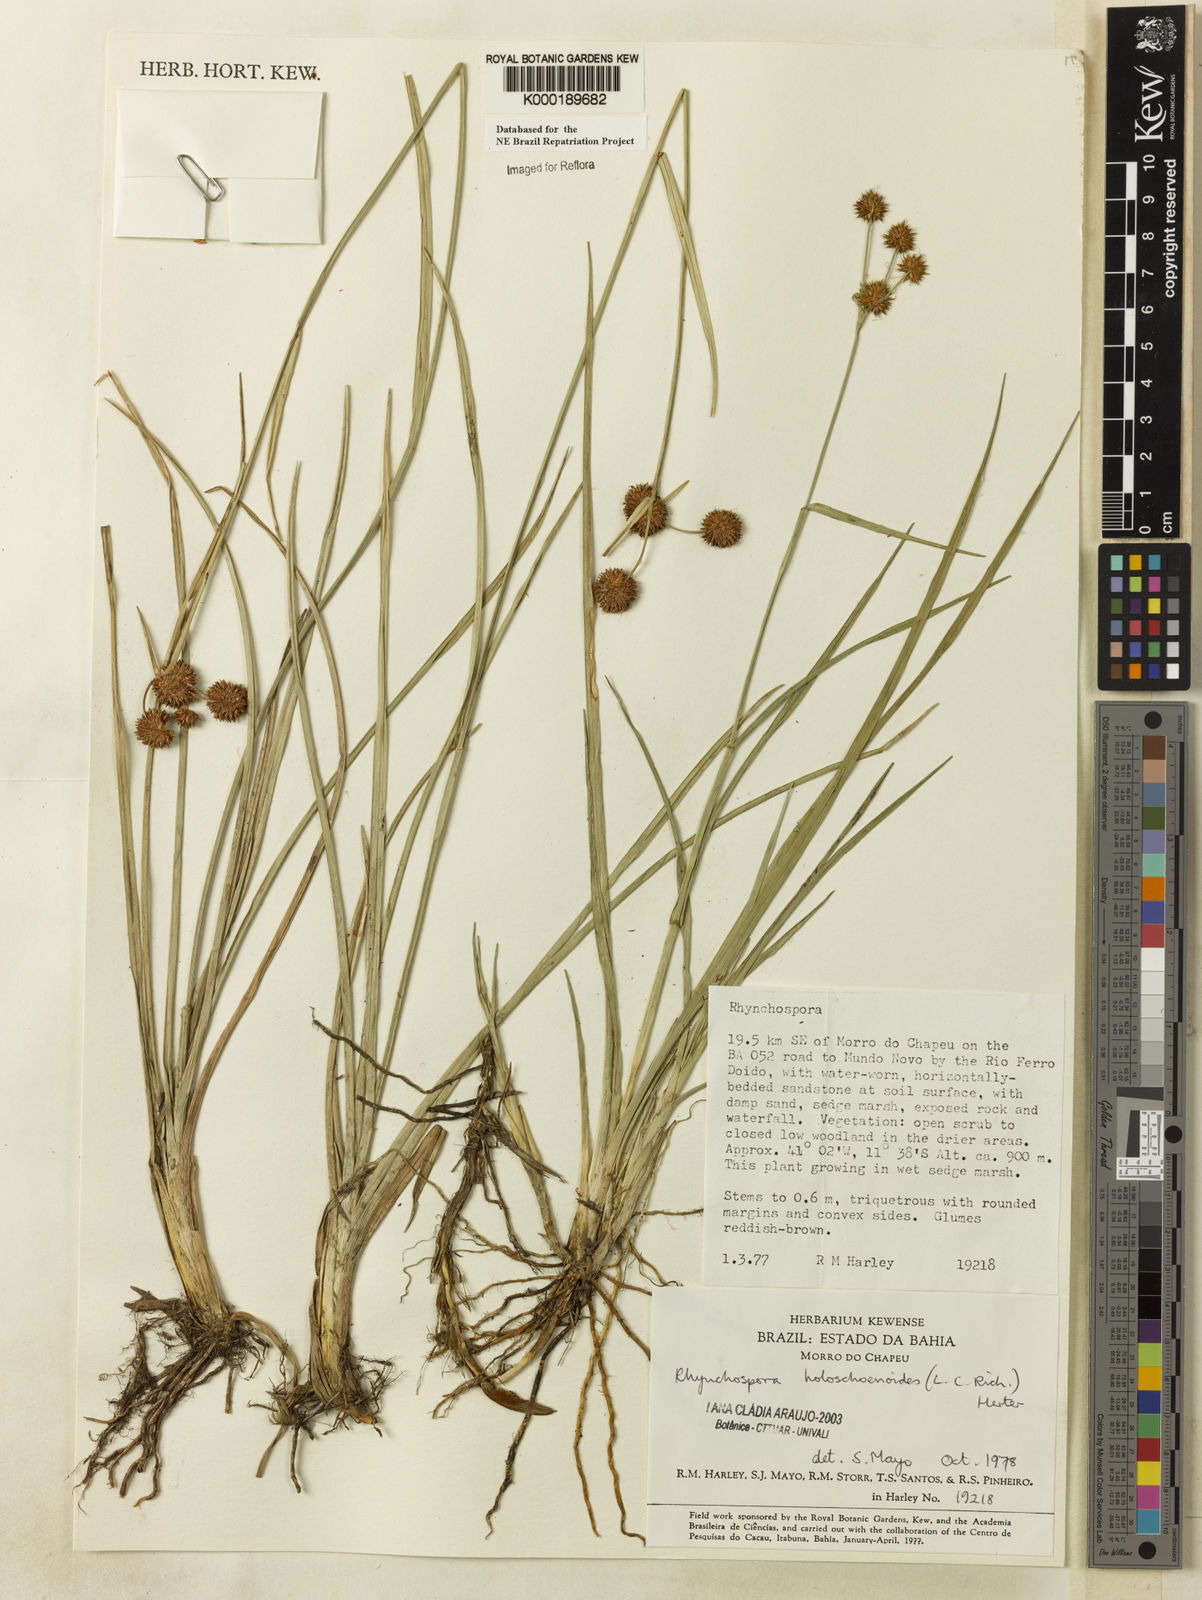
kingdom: Plantae
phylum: Tracheophyta
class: Liliopsida
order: Poales
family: Cyperaceae
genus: Rhynchospora
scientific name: Rhynchospora holoschoenoides
